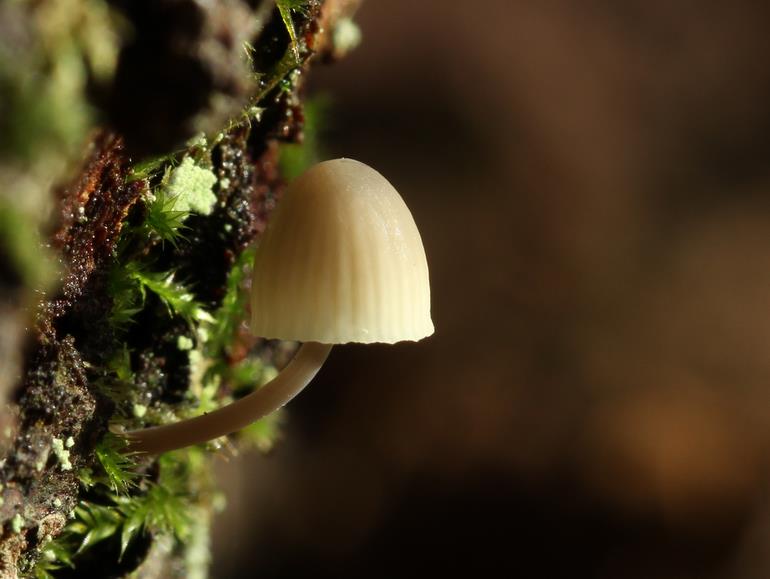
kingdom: Fungi
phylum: Basidiomycota
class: Agaricomycetes
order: Agaricales
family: Mycenaceae
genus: Mycena
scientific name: Mycena arcangeliana
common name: oliven-huesvamp
